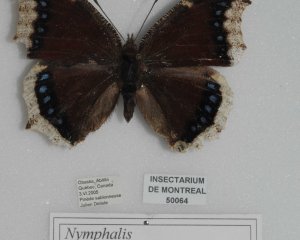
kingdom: Animalia
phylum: Arthropoda
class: Insecta
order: Lepidoptera
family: Nymphalidae
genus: Nymphalis
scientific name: Nymphalis antiopa
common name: Mourning Cloak
